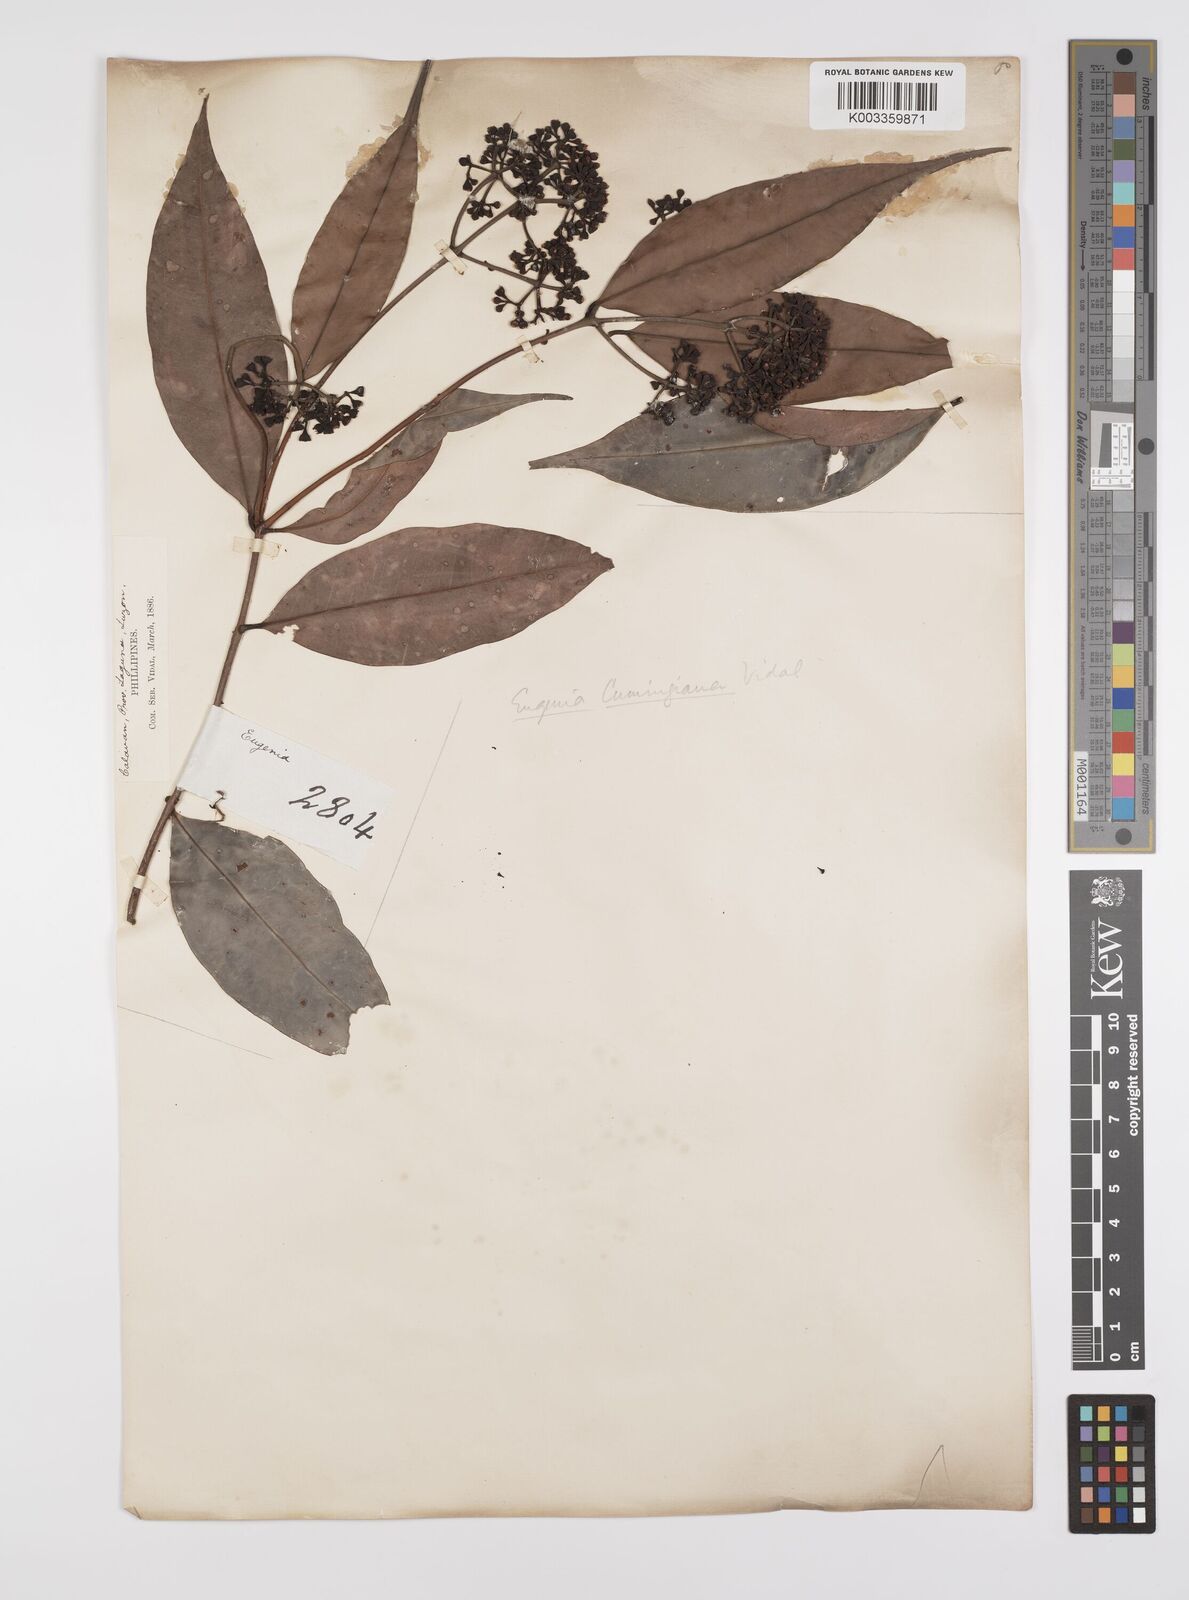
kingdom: Plantae
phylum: Tracheophyta
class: Magnoliopsida
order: Myrtales
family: Myrtaceae
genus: Syzygium
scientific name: Syzygium acuminatissimum
